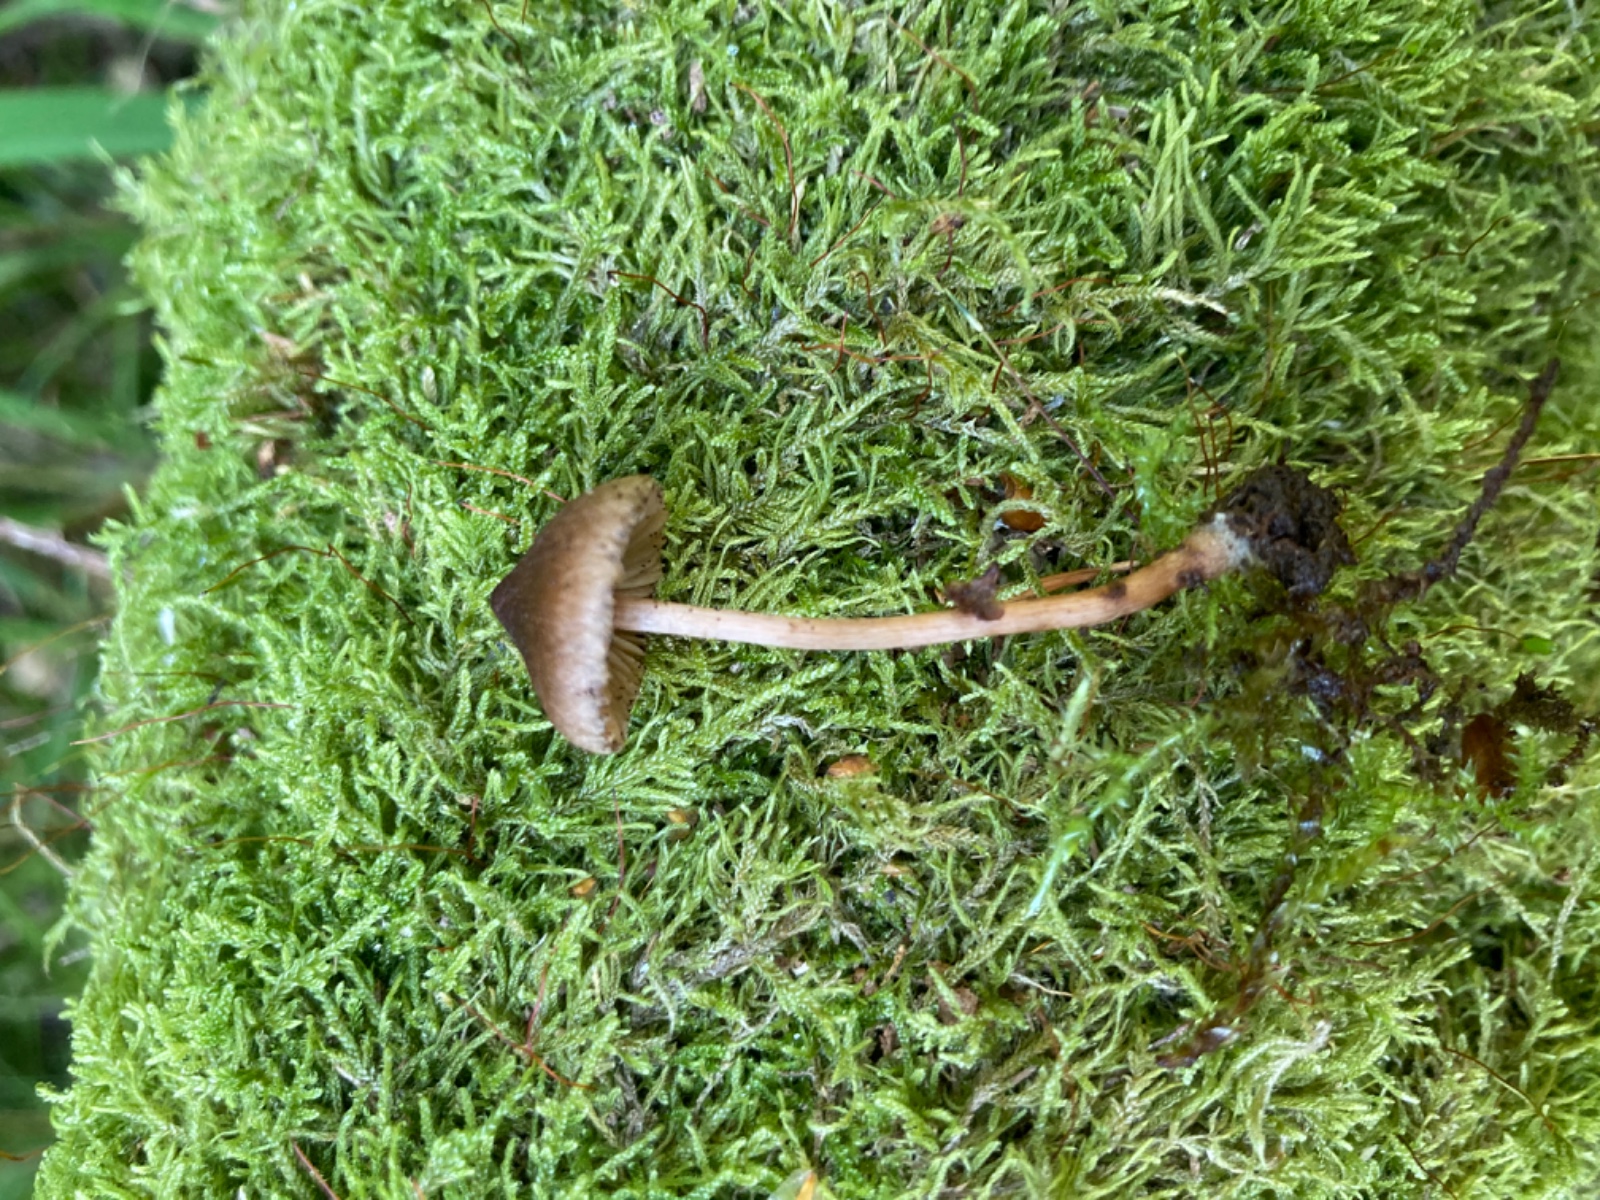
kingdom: Fungi
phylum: Basidiomycota
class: Agaricomycetes
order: Agaricales
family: Inocybaceae
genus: Inocybe
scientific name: Inocybe helobia
